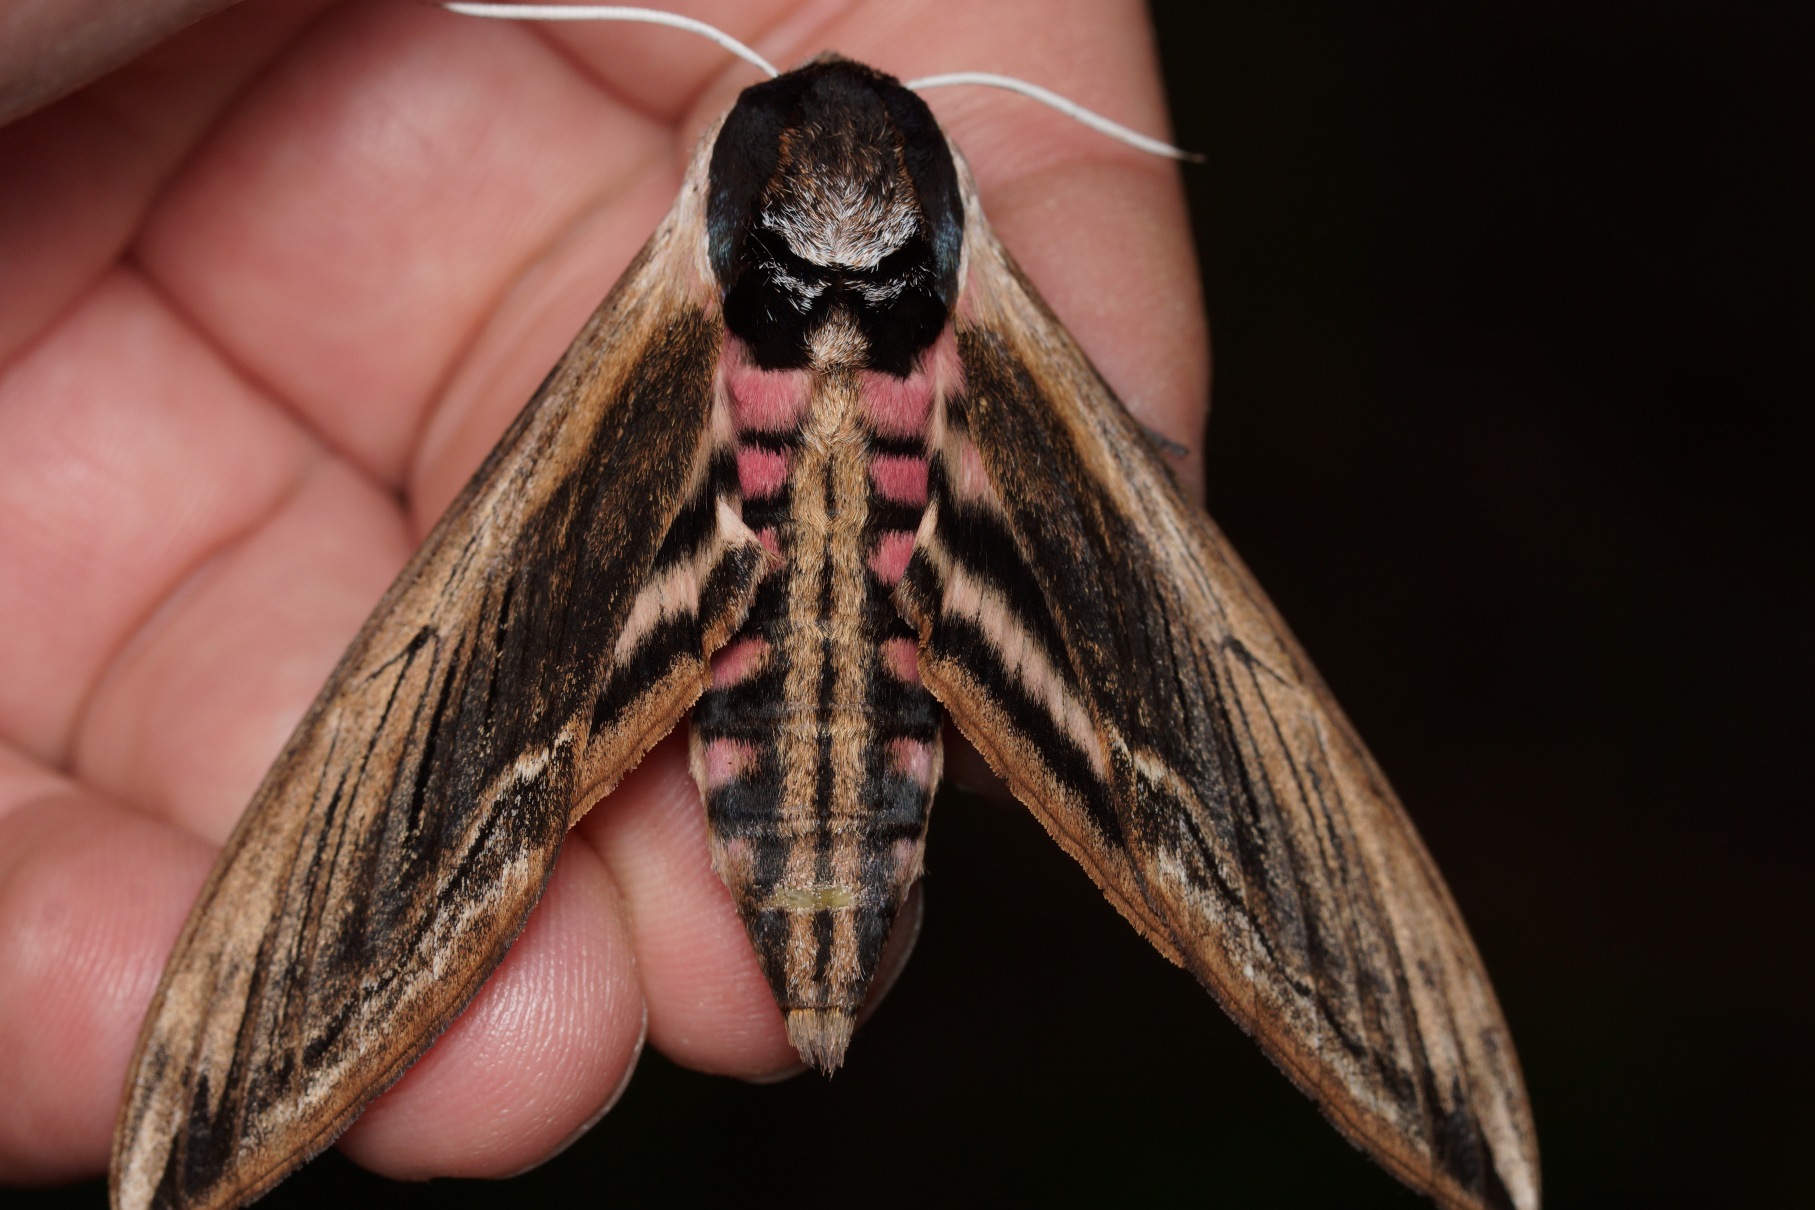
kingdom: Animalia
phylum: Arthropoda
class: Insecta
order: Lepidoptera
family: Sphingidae
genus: Sphinx
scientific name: Sphinx ligustri
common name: Ligustersværmer
